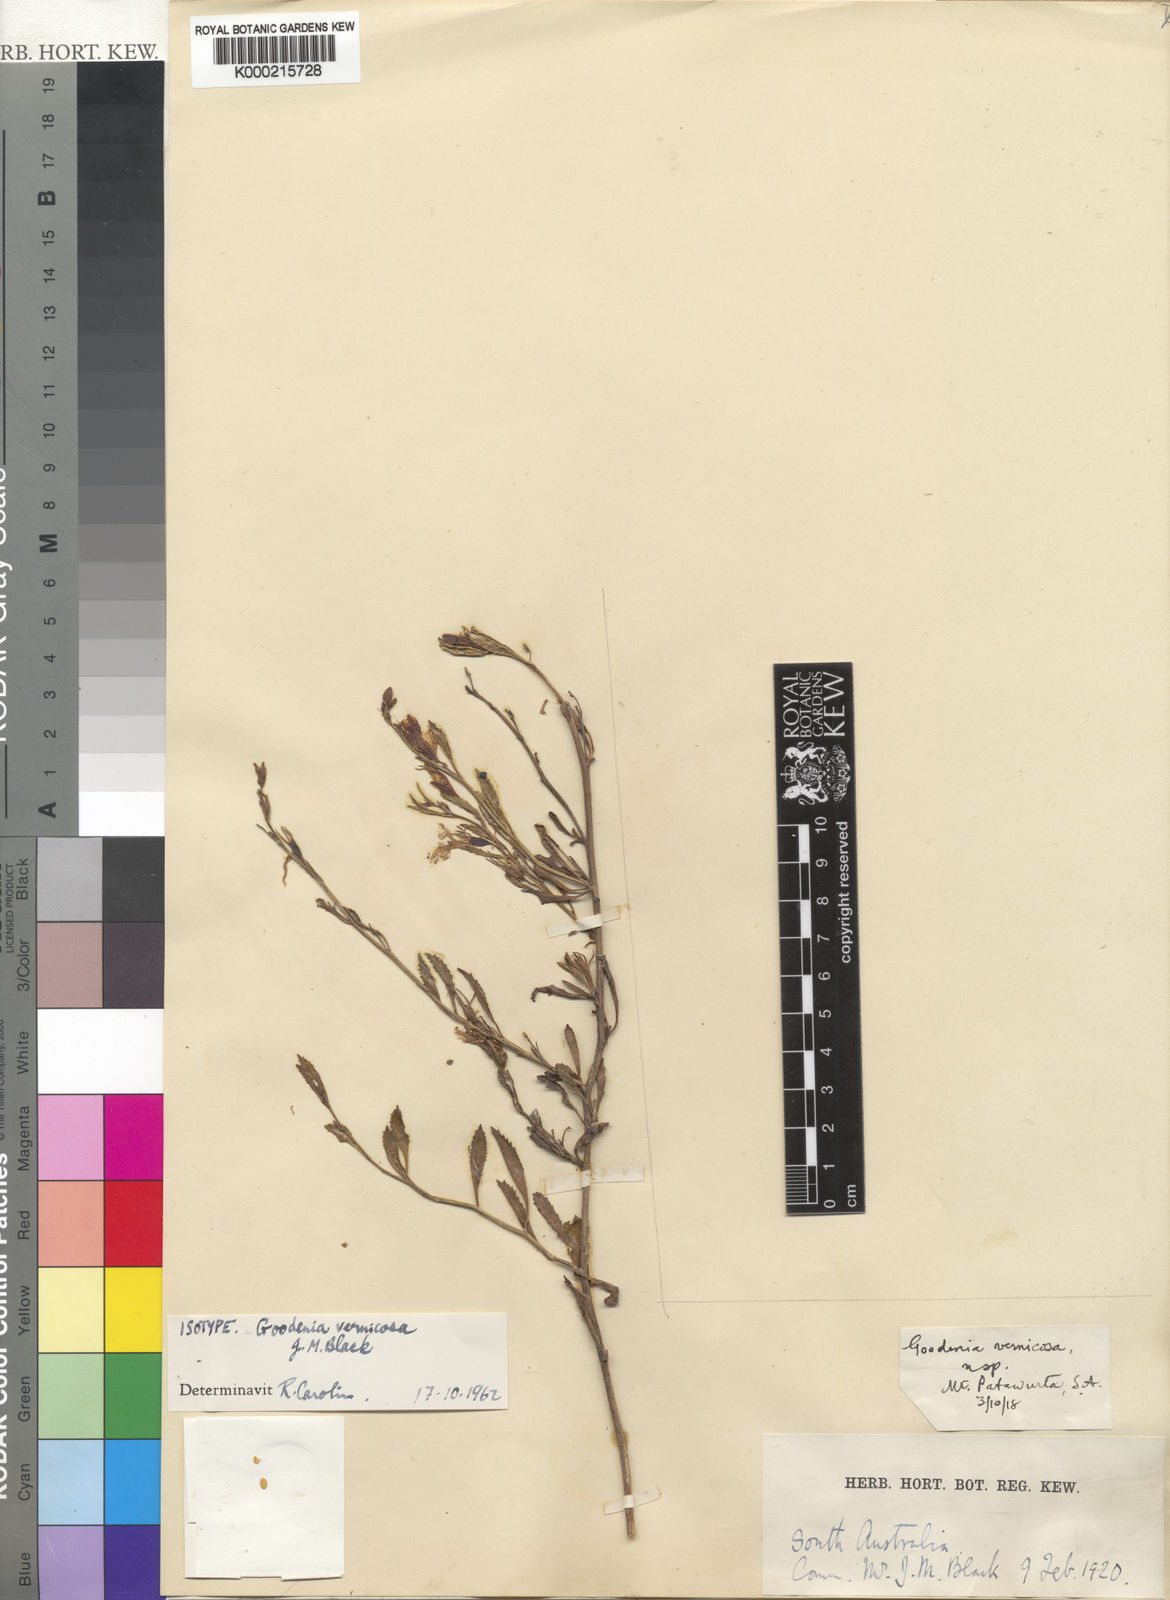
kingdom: Plantae
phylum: Tracheophyta
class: Magnoliopsida
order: Asterales
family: Goodeniaceae
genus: Goodenia
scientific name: Goodenia vernicosa
